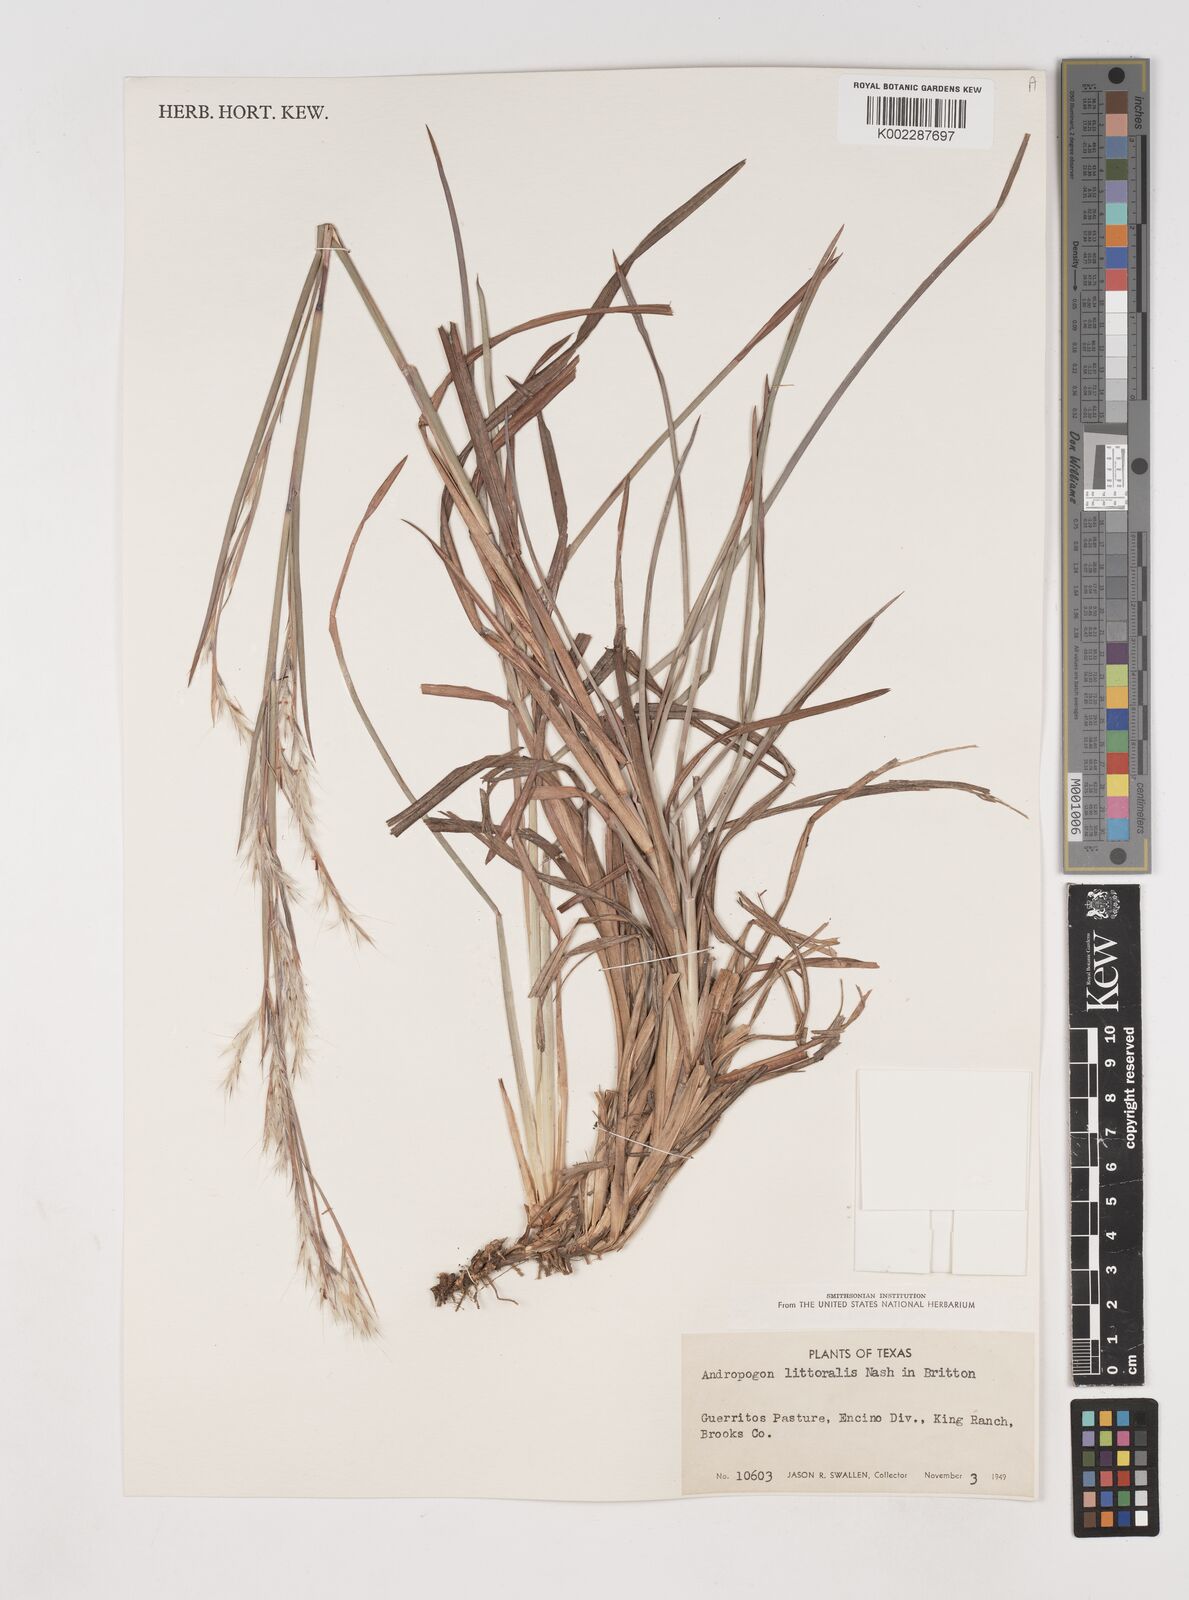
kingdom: Plantae
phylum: Tracheophyta
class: Liliopsida
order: Poales
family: Poaceae
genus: Schizachyrium
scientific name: Schizachyrium scoparium
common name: Little bluestem
